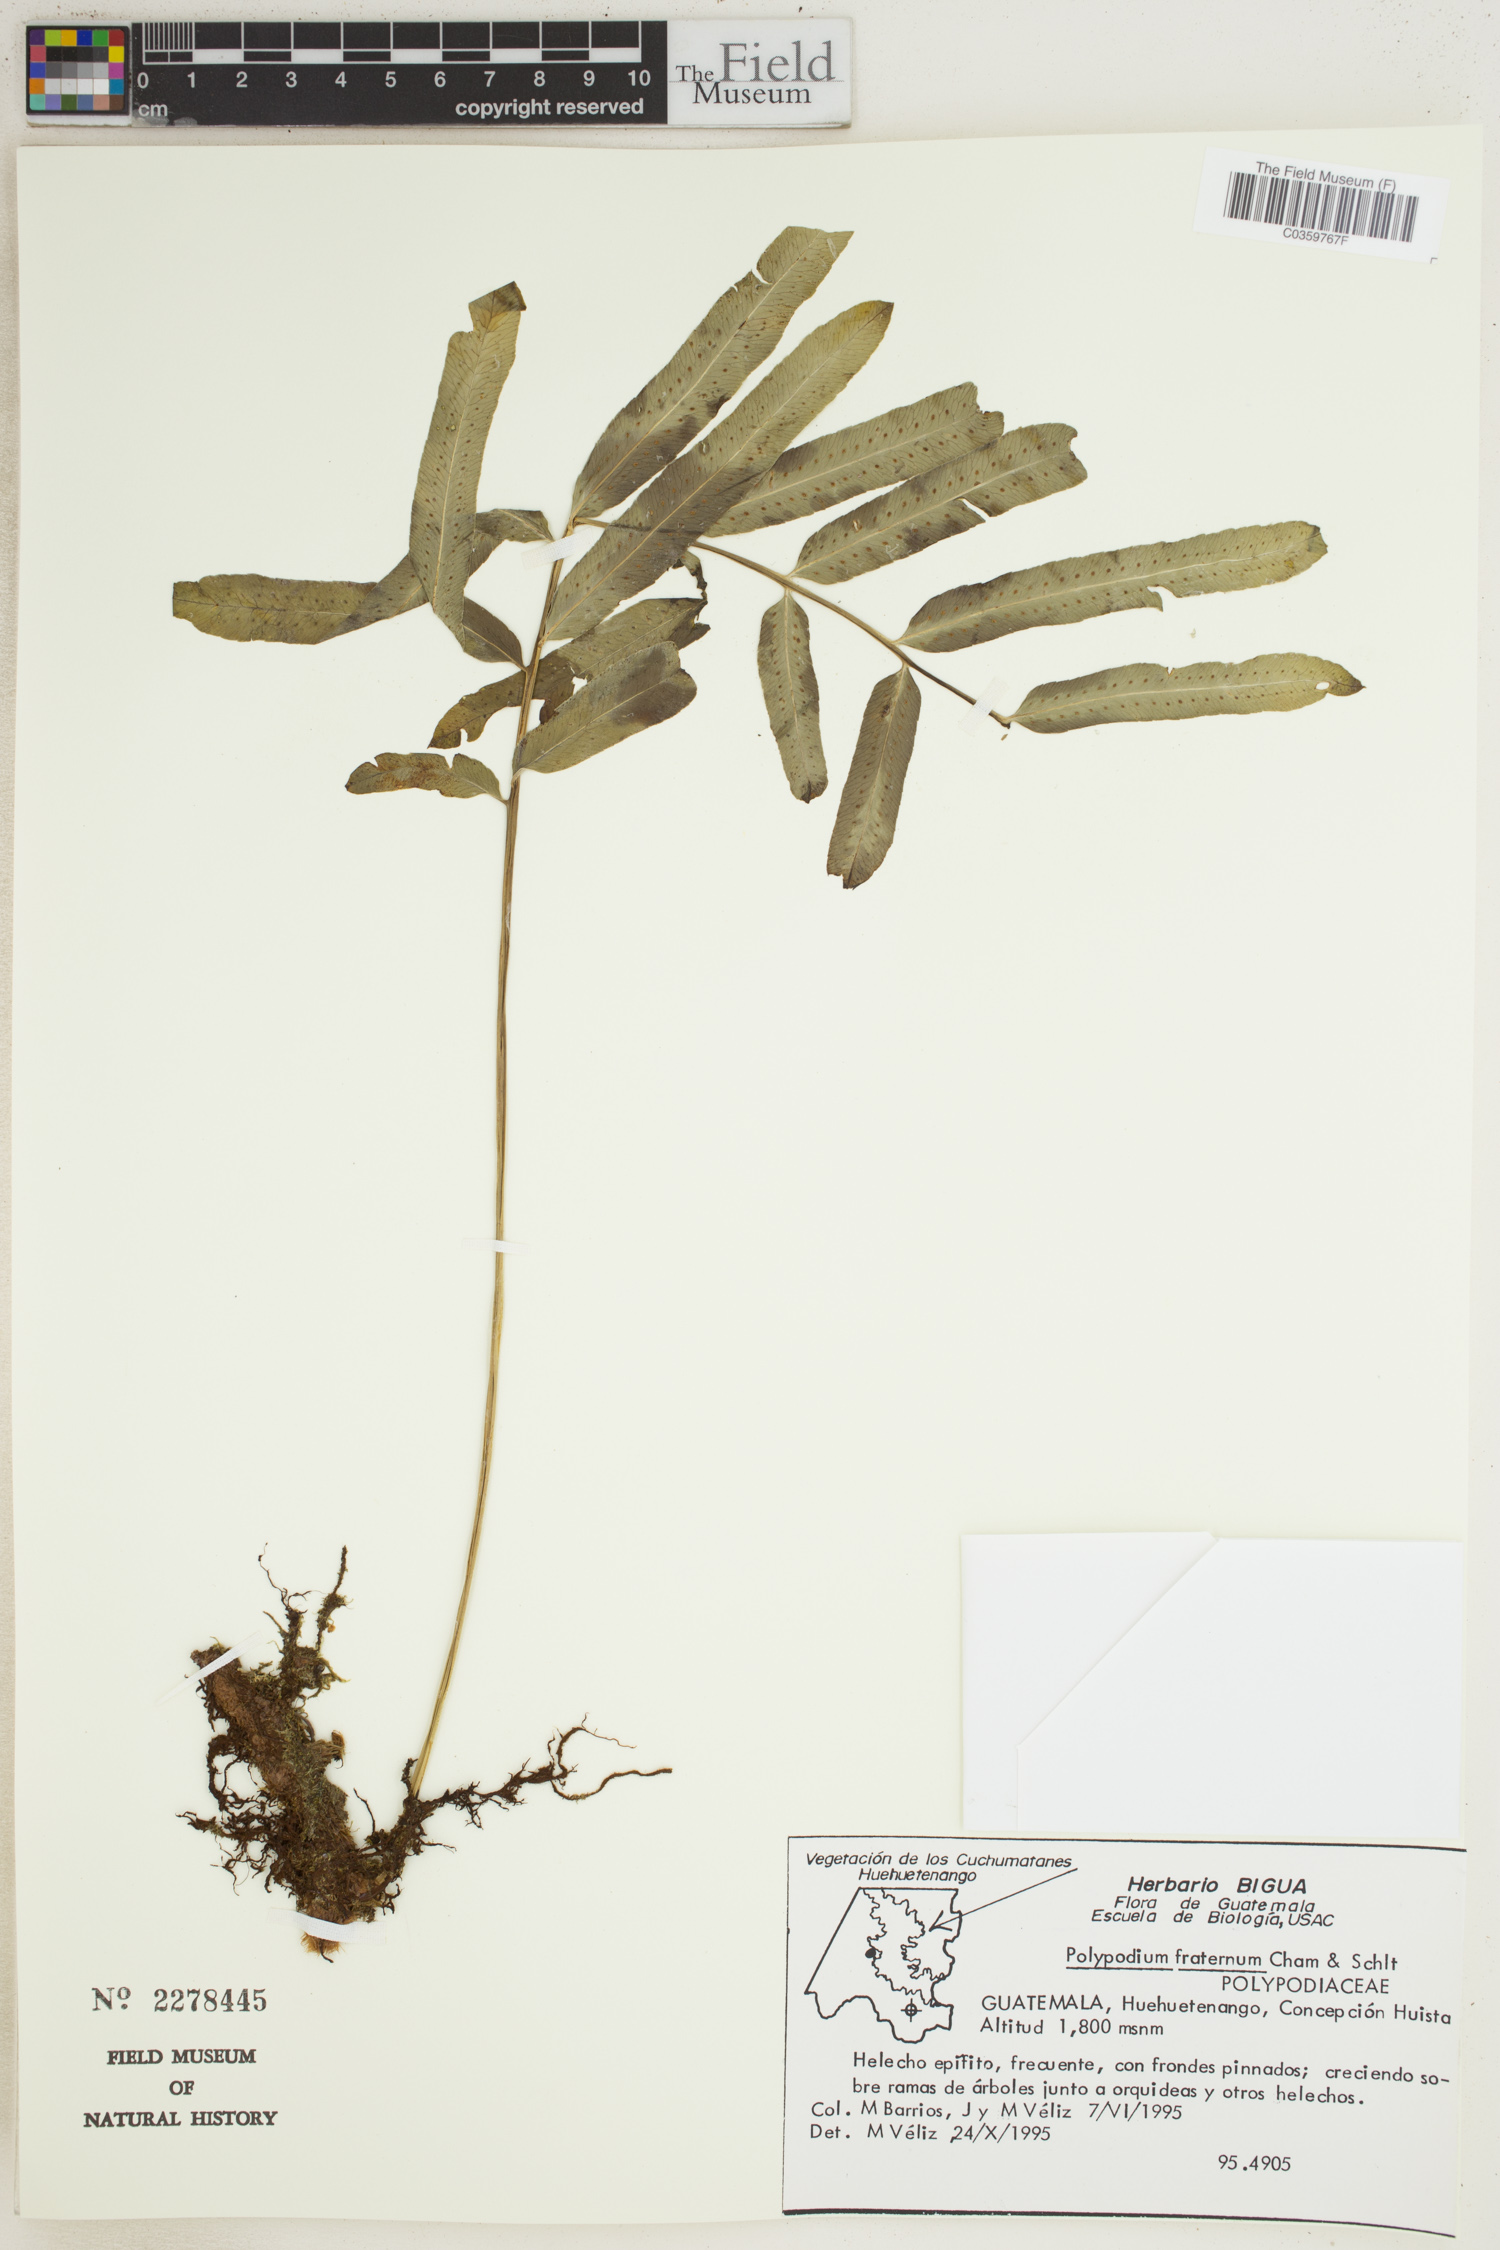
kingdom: Plantae
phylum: Tracheophyta
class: Polypodiopsida
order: Polypodiales
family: Polypodiaceae
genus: Polypodium
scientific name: Polypodium fraternum
